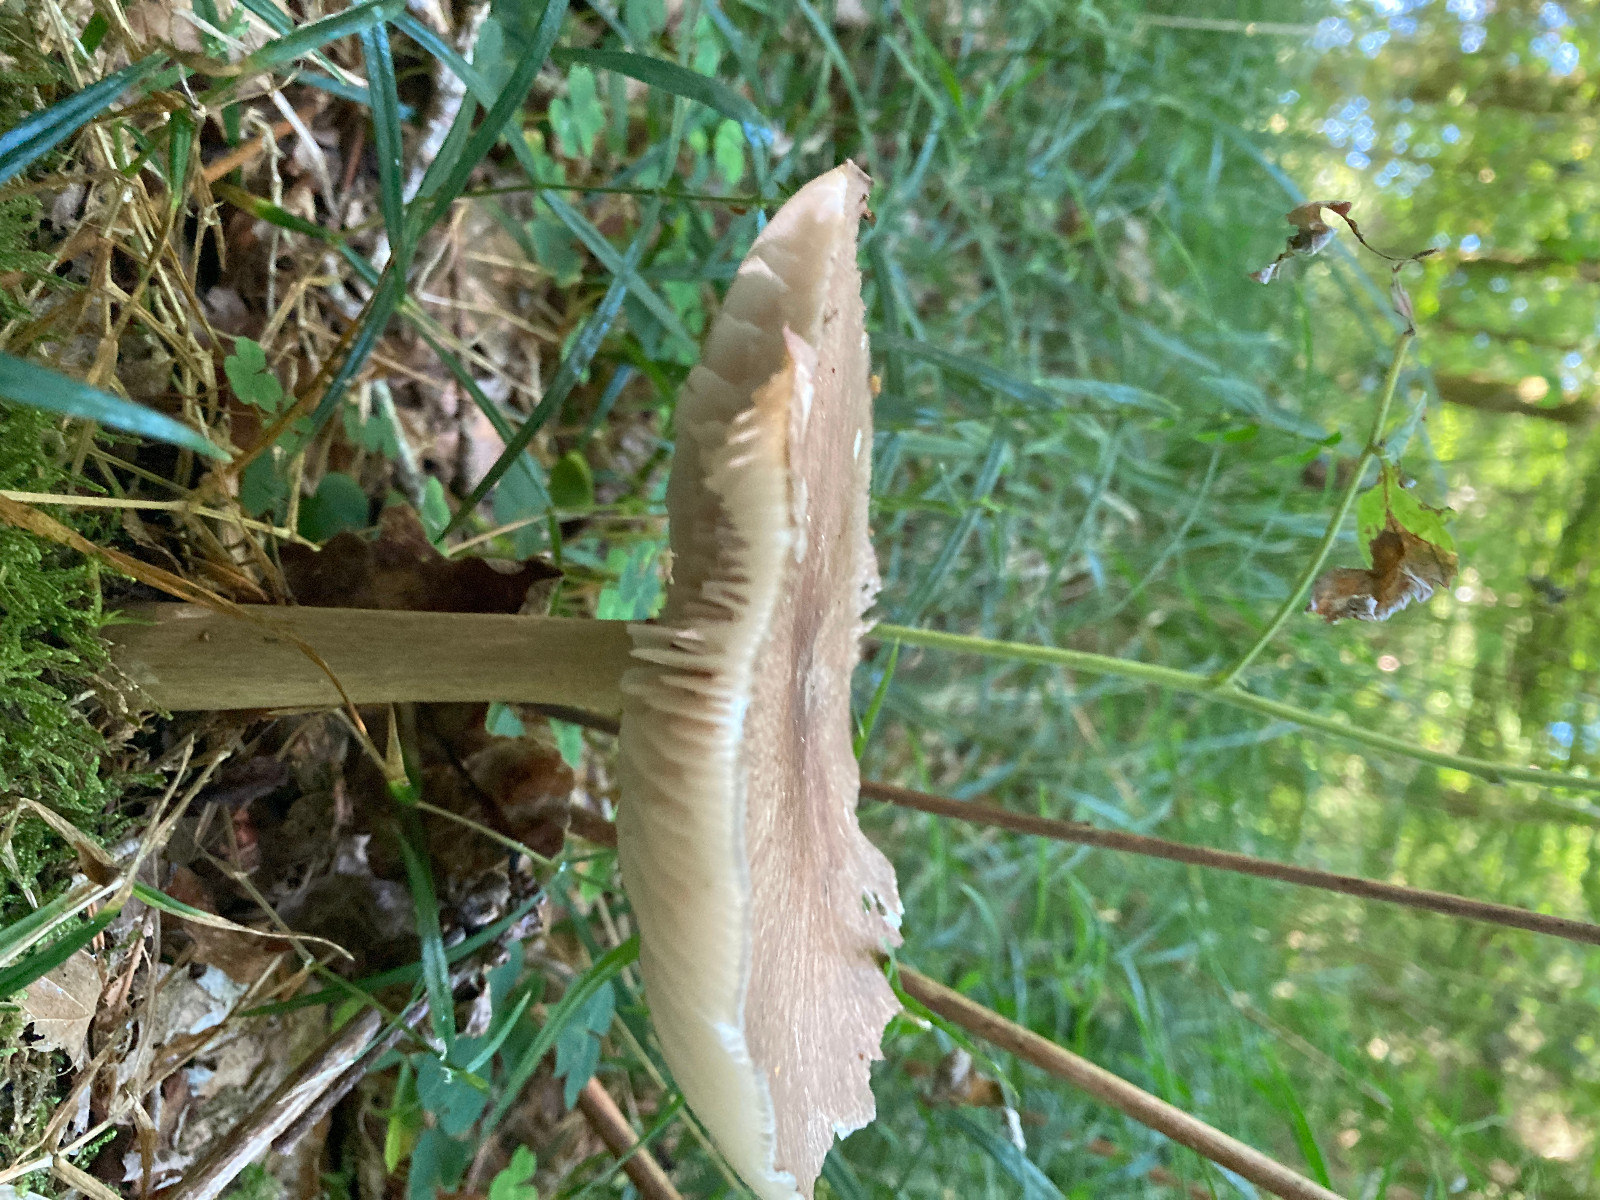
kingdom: Fungi
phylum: Basidiomycota
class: Agaricomycetes
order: Agaricales
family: Tricholomataceae
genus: Megacollybia
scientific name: Megacollybia platyphylla
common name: bredbladet væbnerhat
